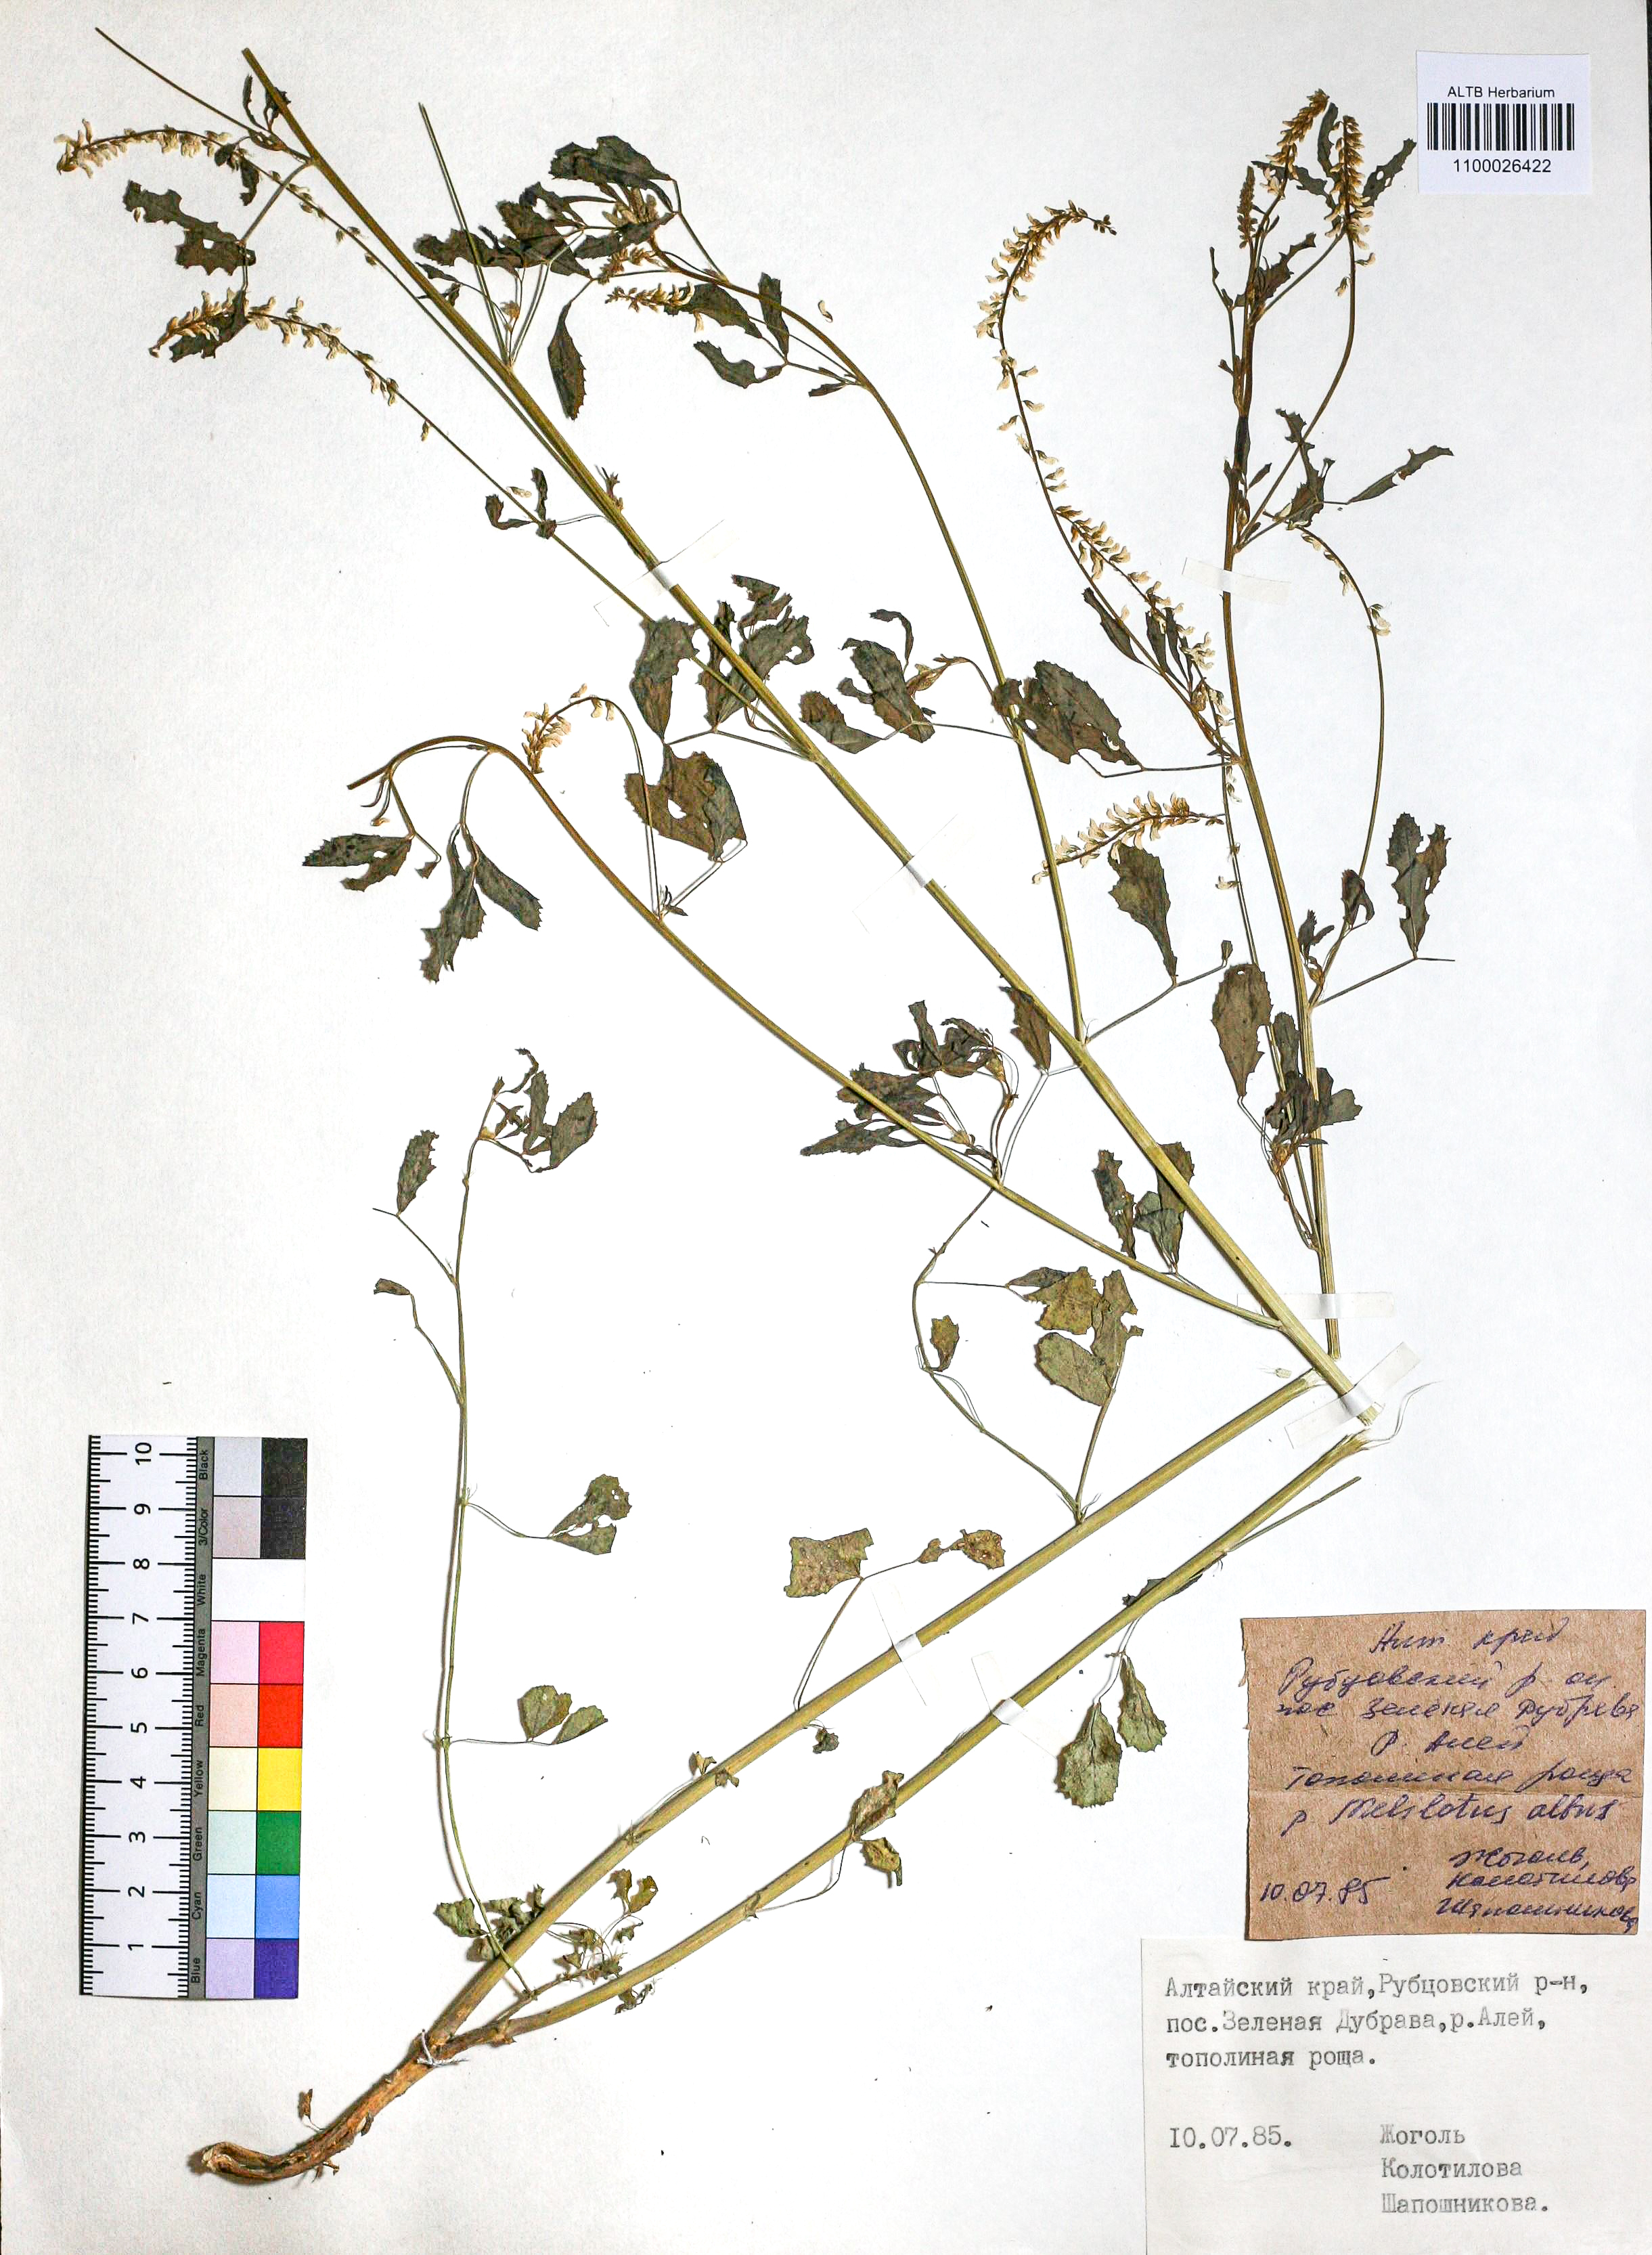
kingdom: Plantae
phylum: Tracheophyta
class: Magnoliopsida
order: Fabales
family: Fabaceae
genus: Melilotus
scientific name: Melilotus albus
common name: White melilot
